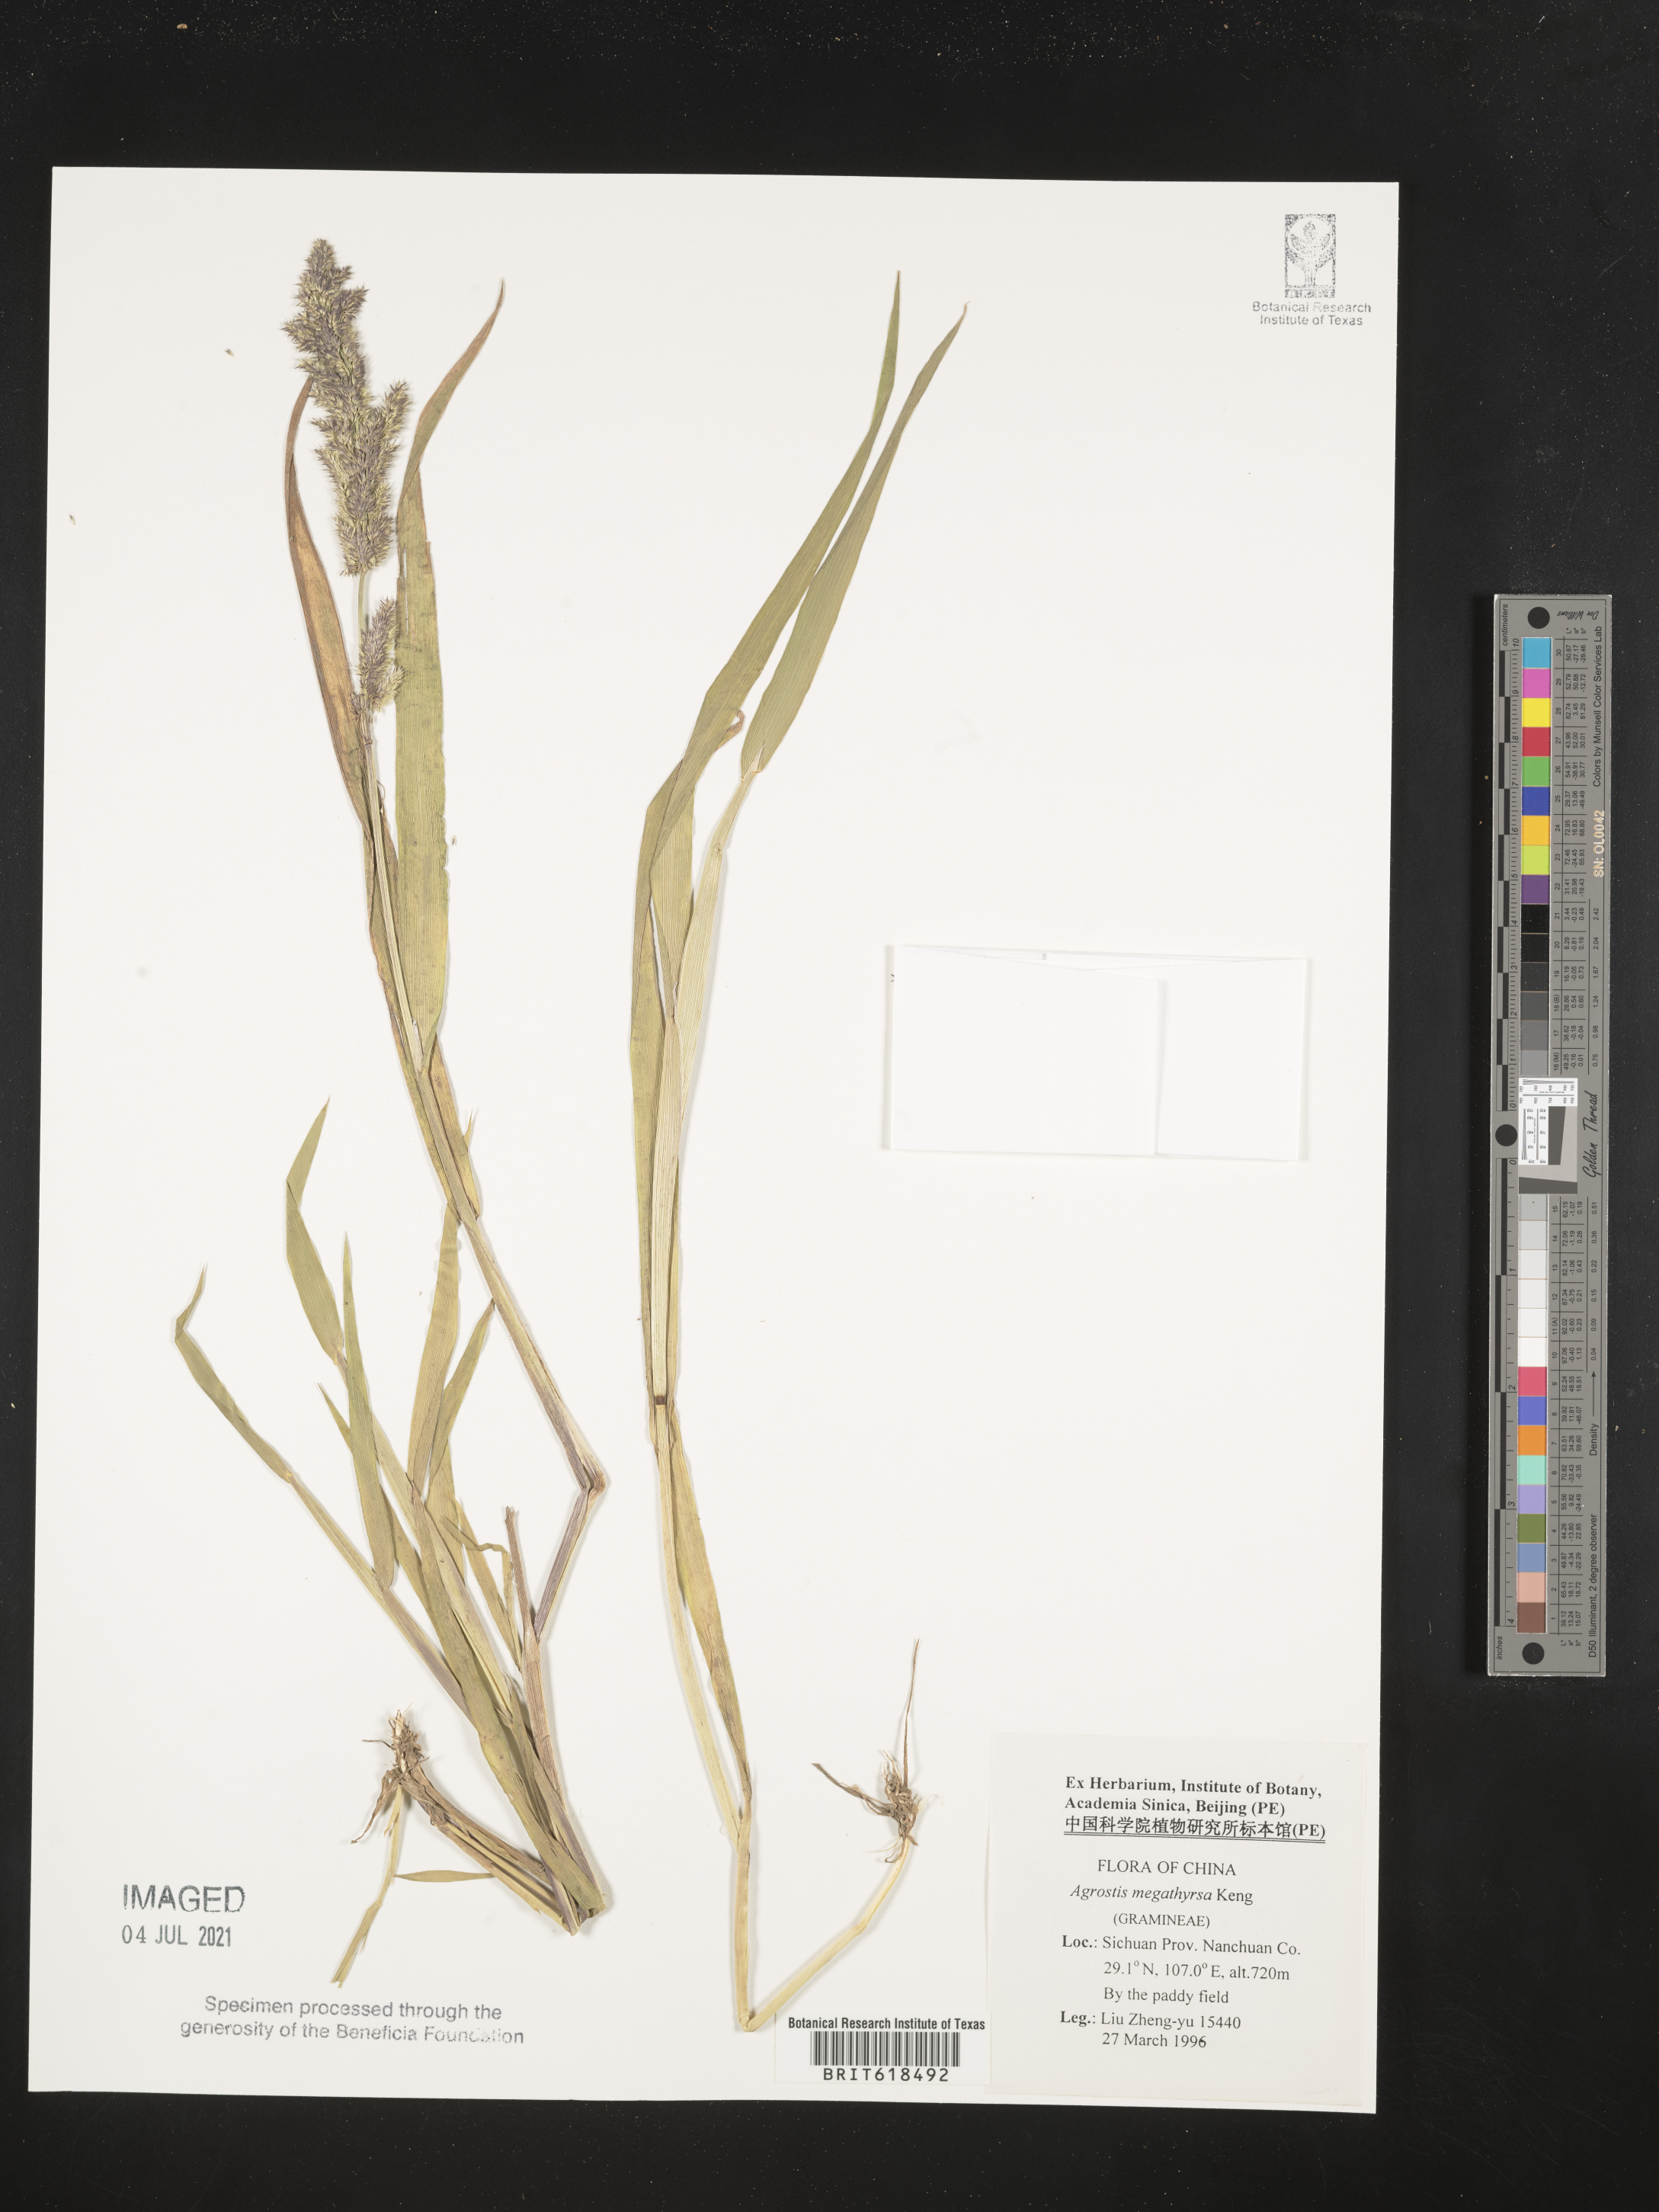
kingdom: Plantae
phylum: Tracheophyta
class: Liliopsida
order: Poales
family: Poaceae
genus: Agrostis
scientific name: Agrostis brachiata
